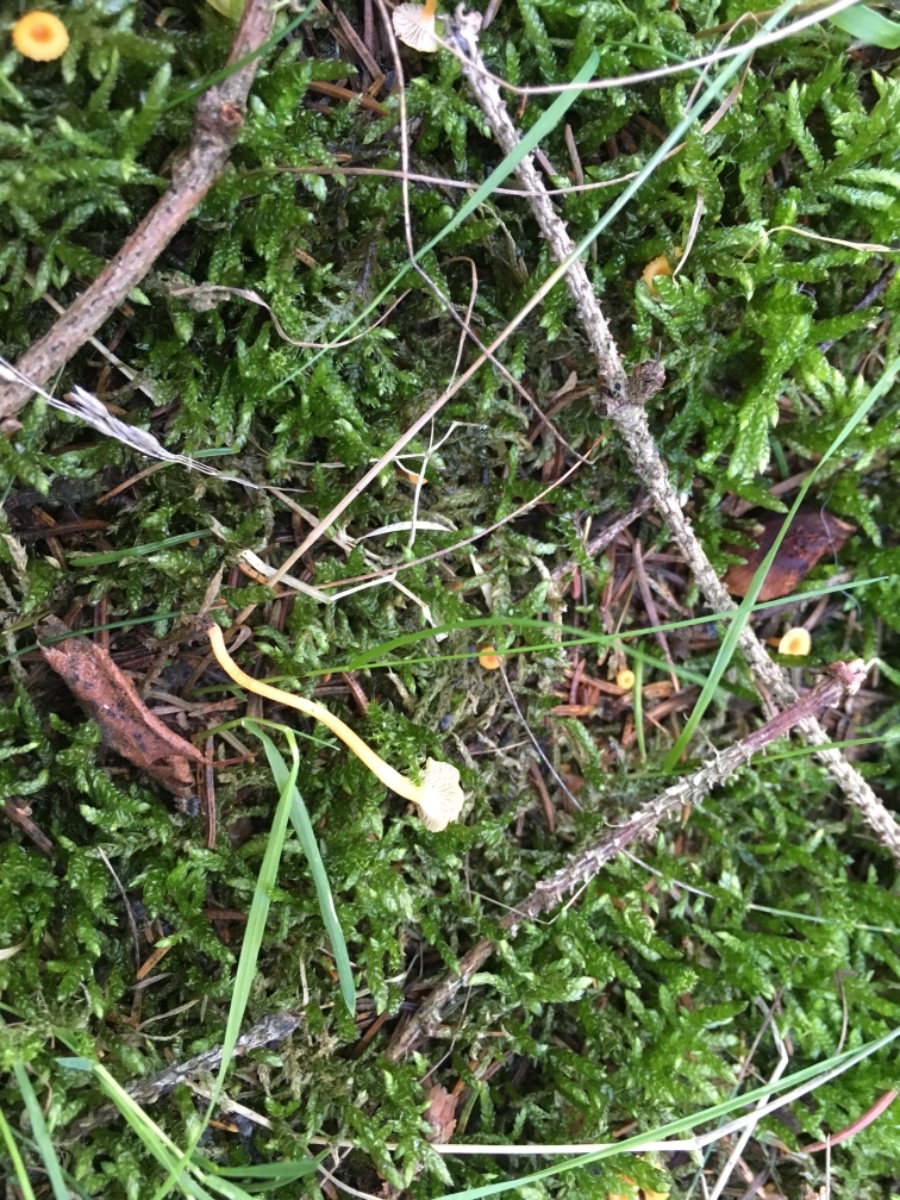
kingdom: Fungi
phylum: Basidiomycota
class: Agaricomycetes
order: Hymenochaetales
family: Rickenellaceae
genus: Rickenella
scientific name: Rickenella fibula
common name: orange mosnavlehat
